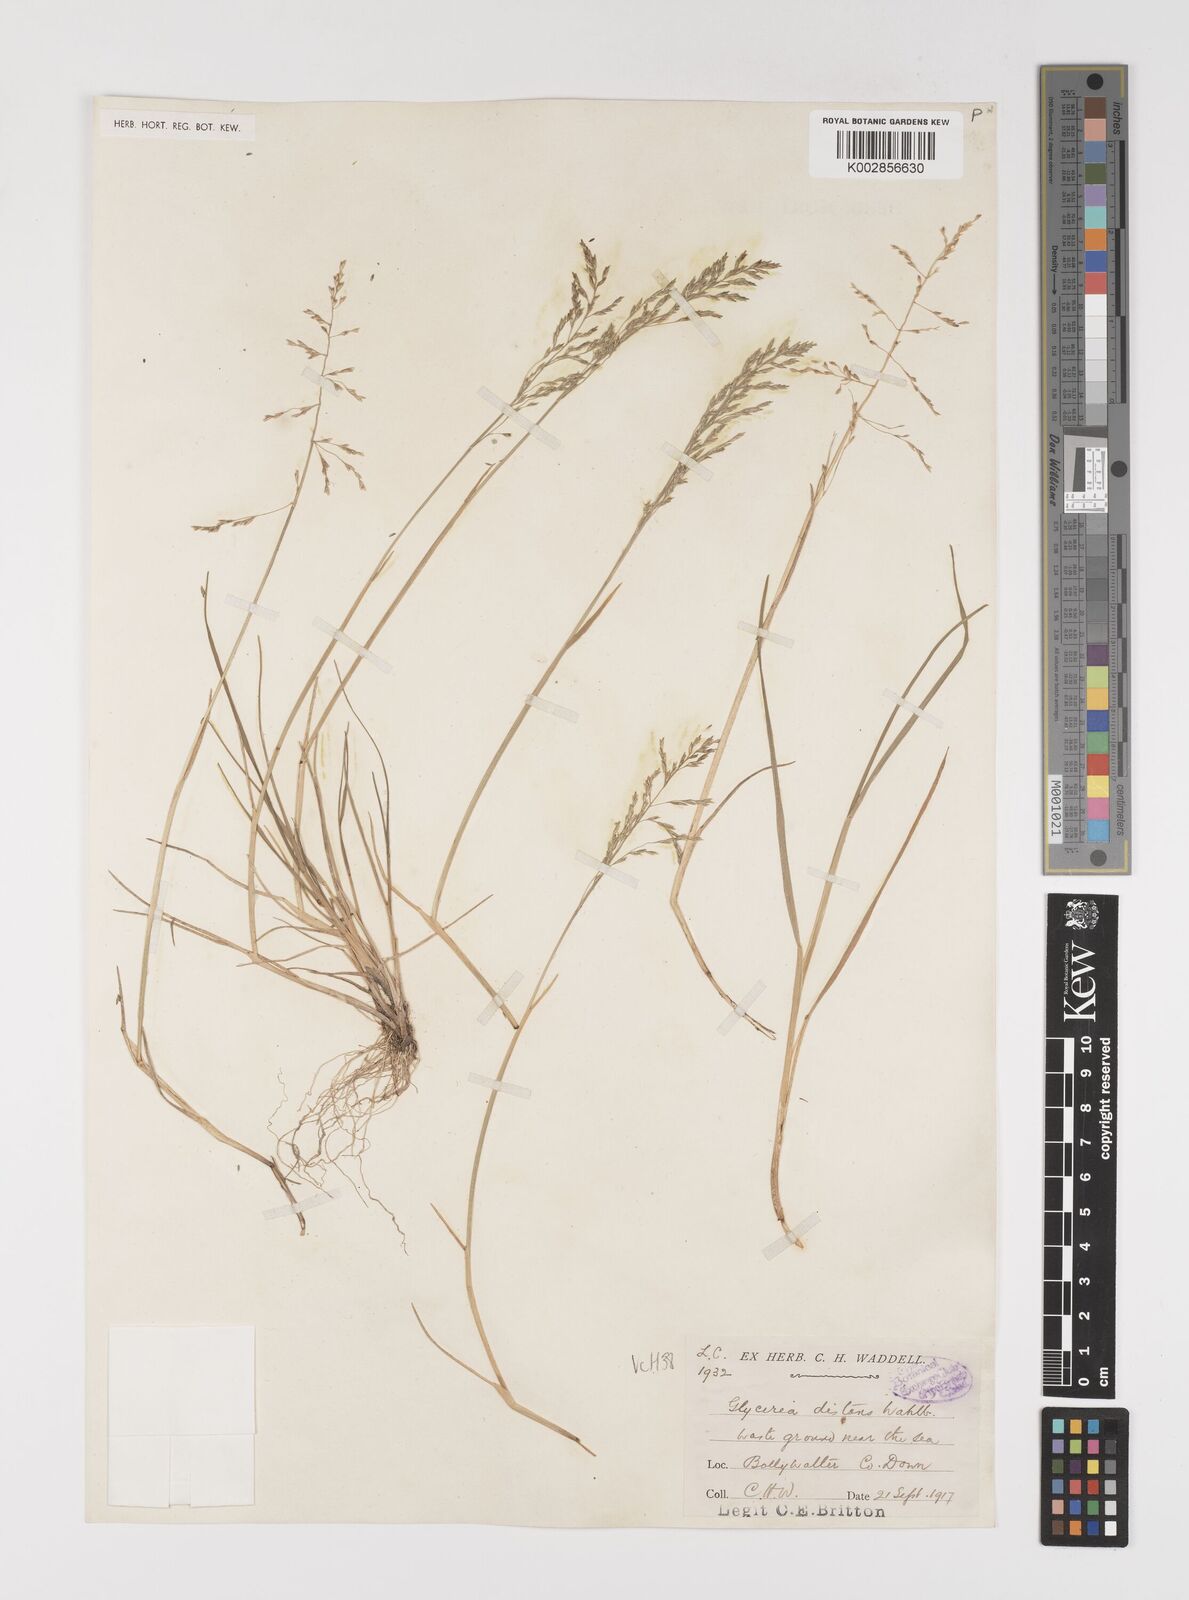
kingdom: Plantae
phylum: Tracheophyta
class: Liliopsida
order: Poales
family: Poaceae
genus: Puccinellia
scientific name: Puccinellia distans
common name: Weeping alkaligrass
